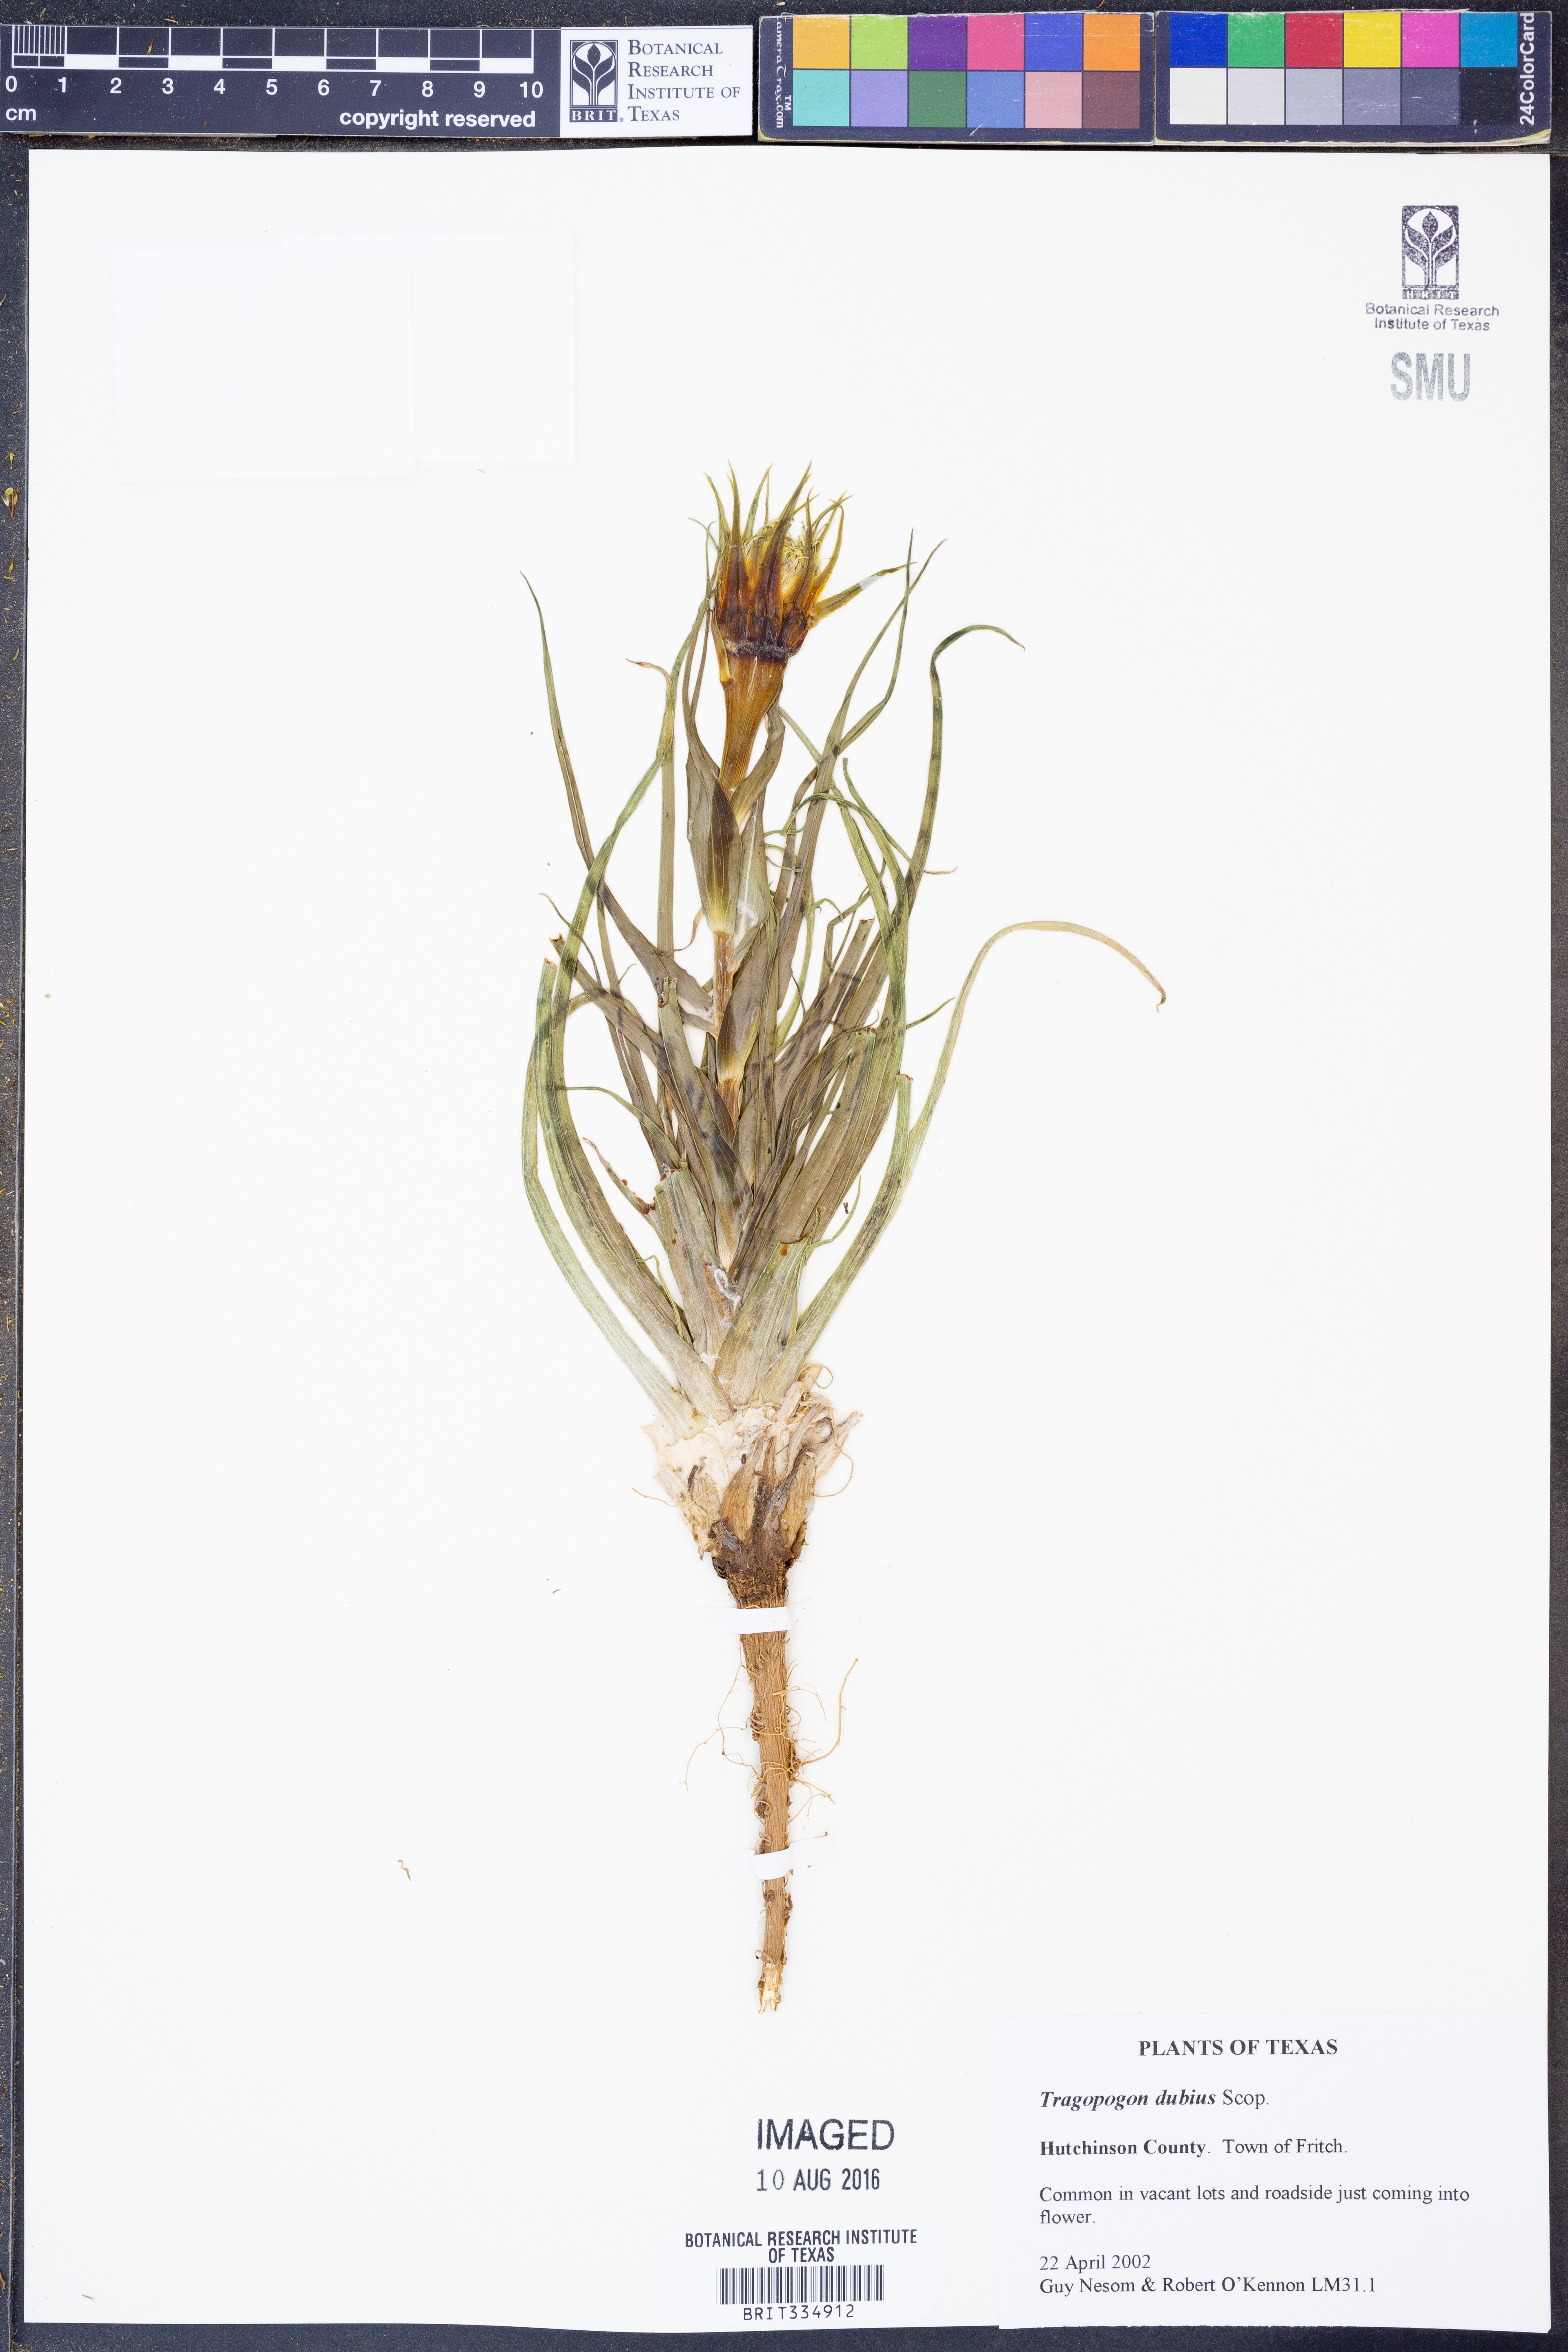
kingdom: Plantae
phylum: Tracheophyta
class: Magnoliopsida
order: Asterales
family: Asteraceae
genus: Tragopogon
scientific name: Tragopogon dubius
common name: Yellow salsify
